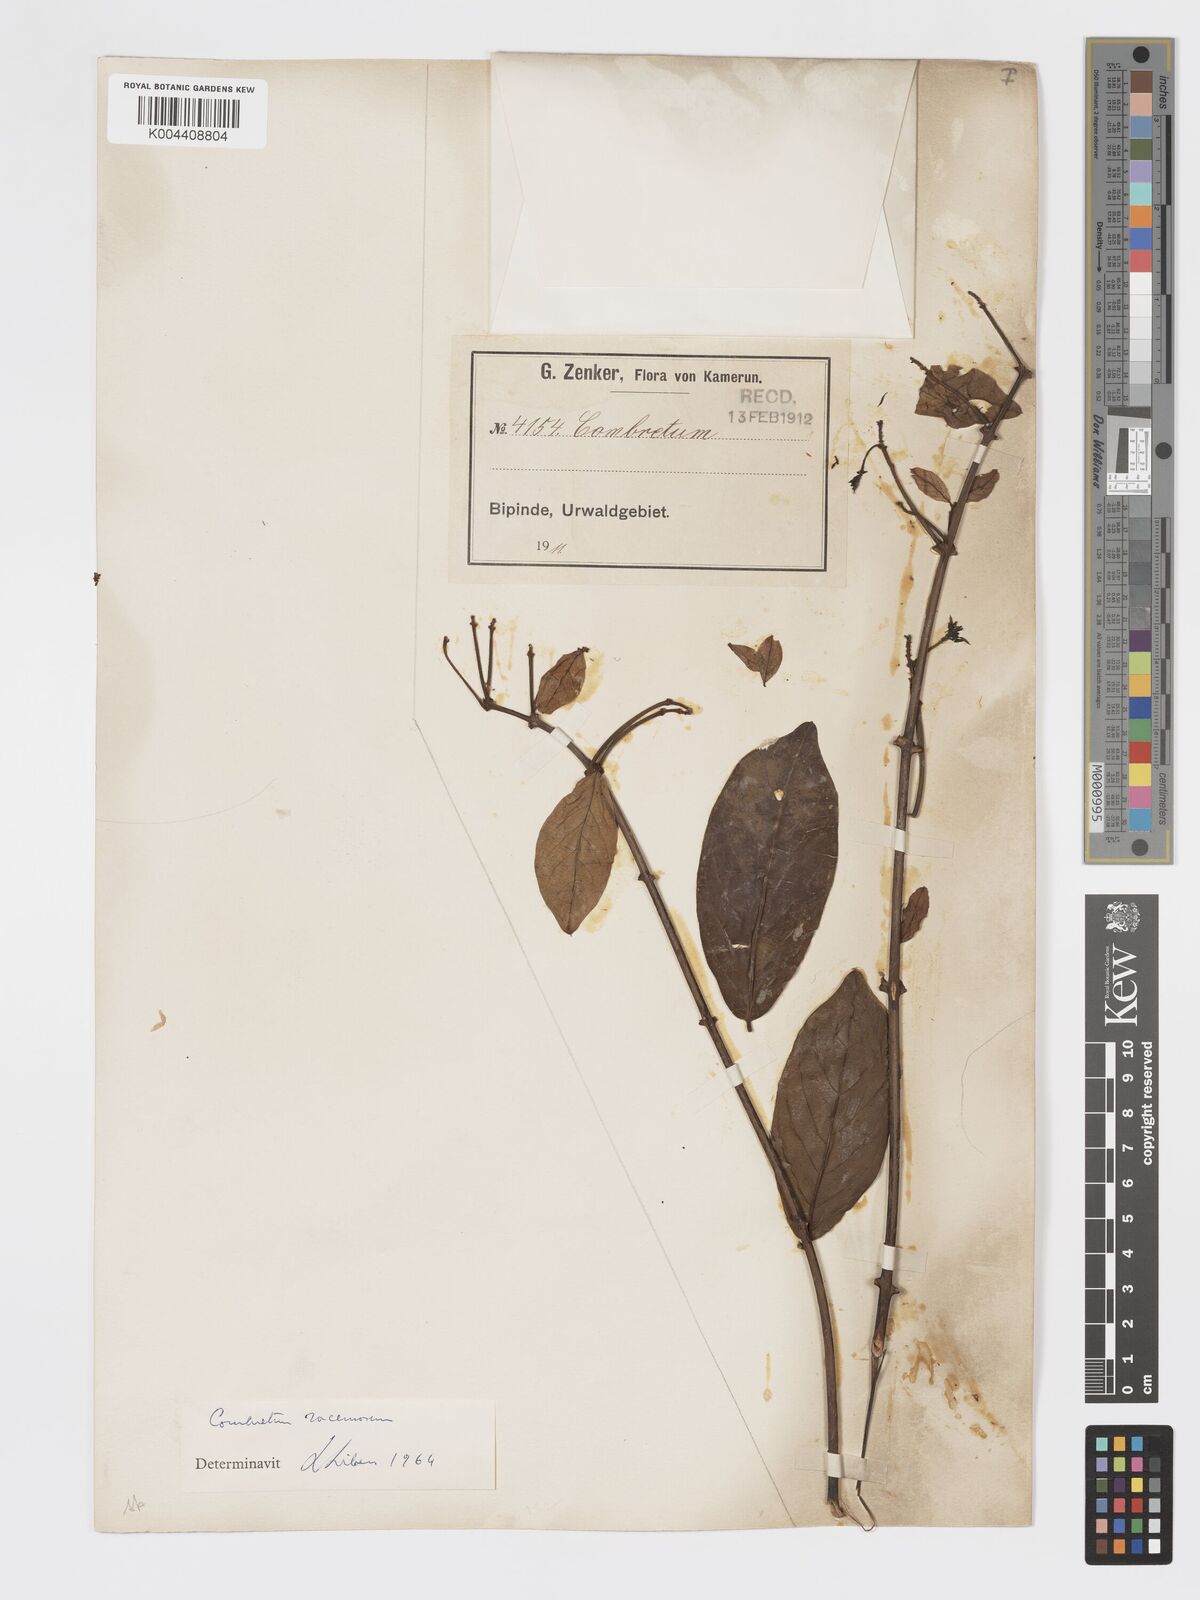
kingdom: Plantae
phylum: Tracheophyta
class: Magnoliopsida
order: Myrtales
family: Combretaceae
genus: Combretum
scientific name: Combretum racemosum
